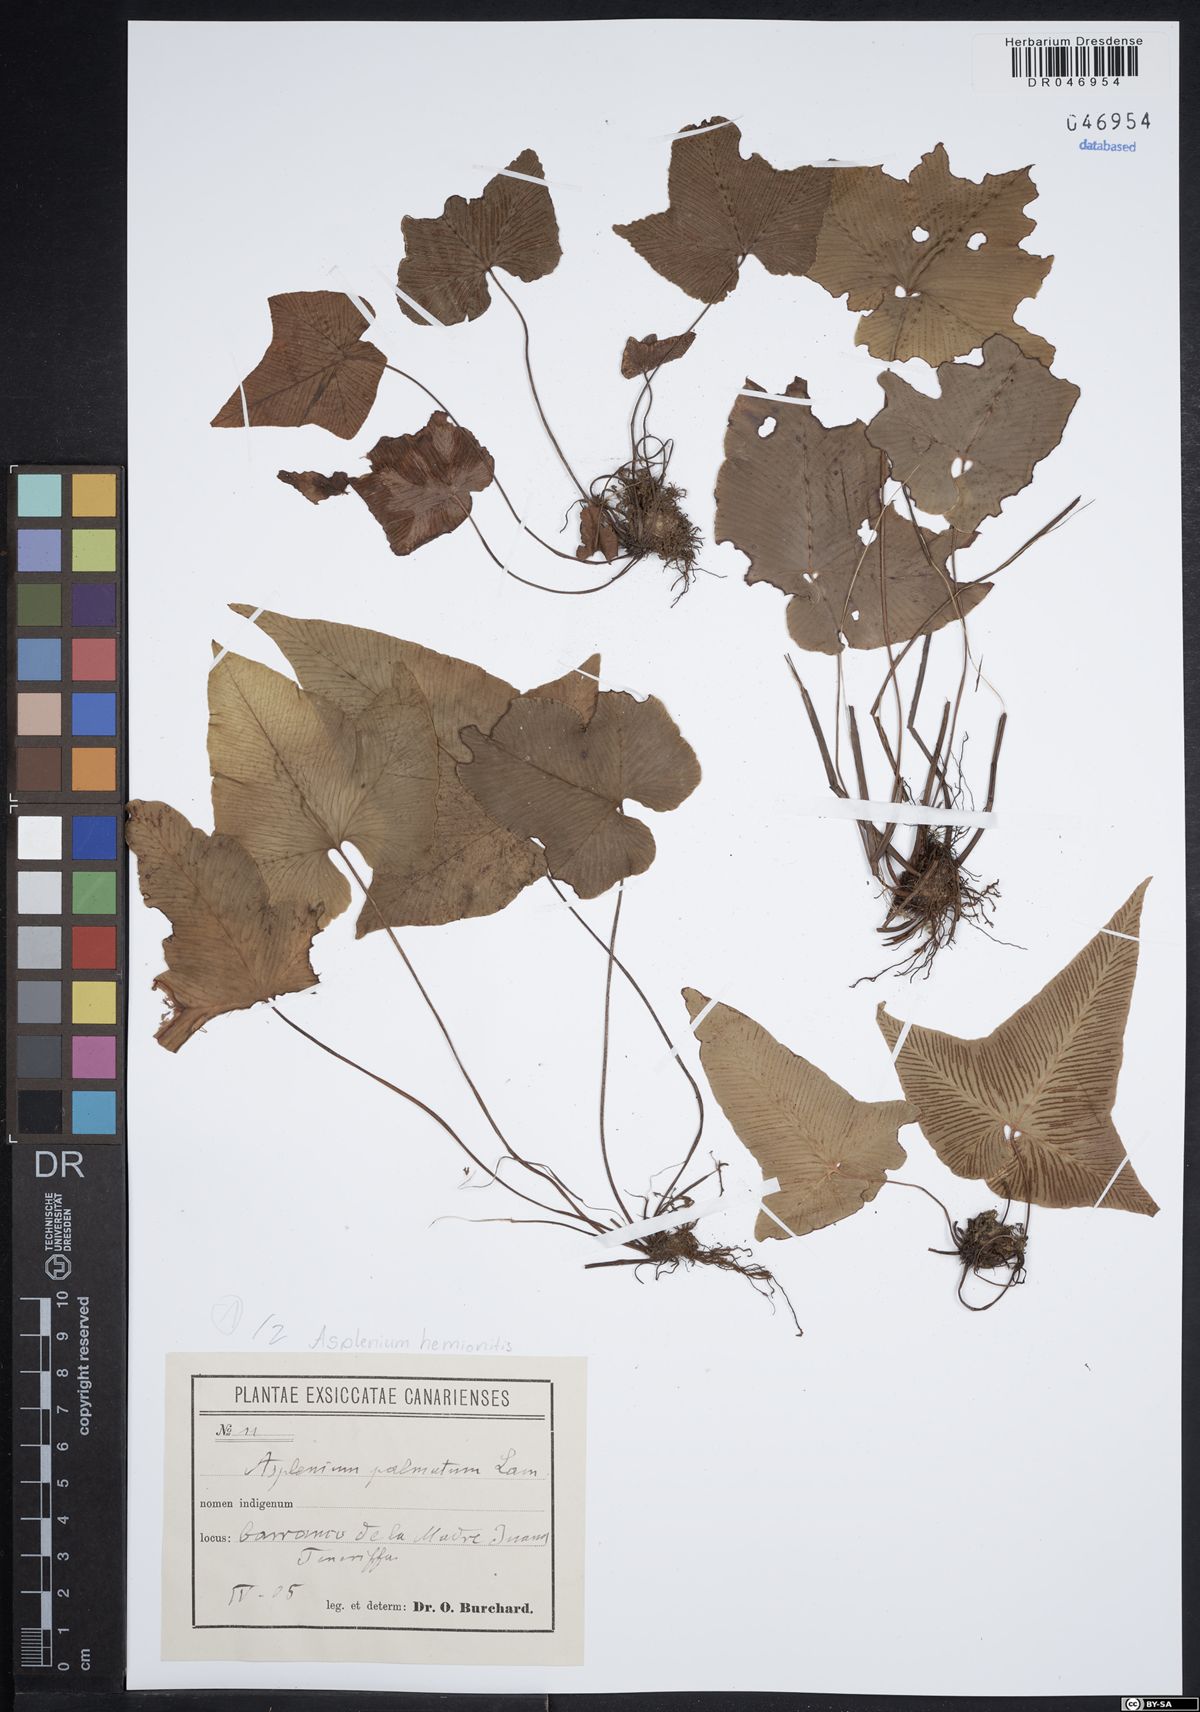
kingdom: Plantae
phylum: Tracheophyta
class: Polypodiopsida
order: Polypodiales
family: Aspleniaceae
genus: Asplenium
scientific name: Asplenium hemionitis
